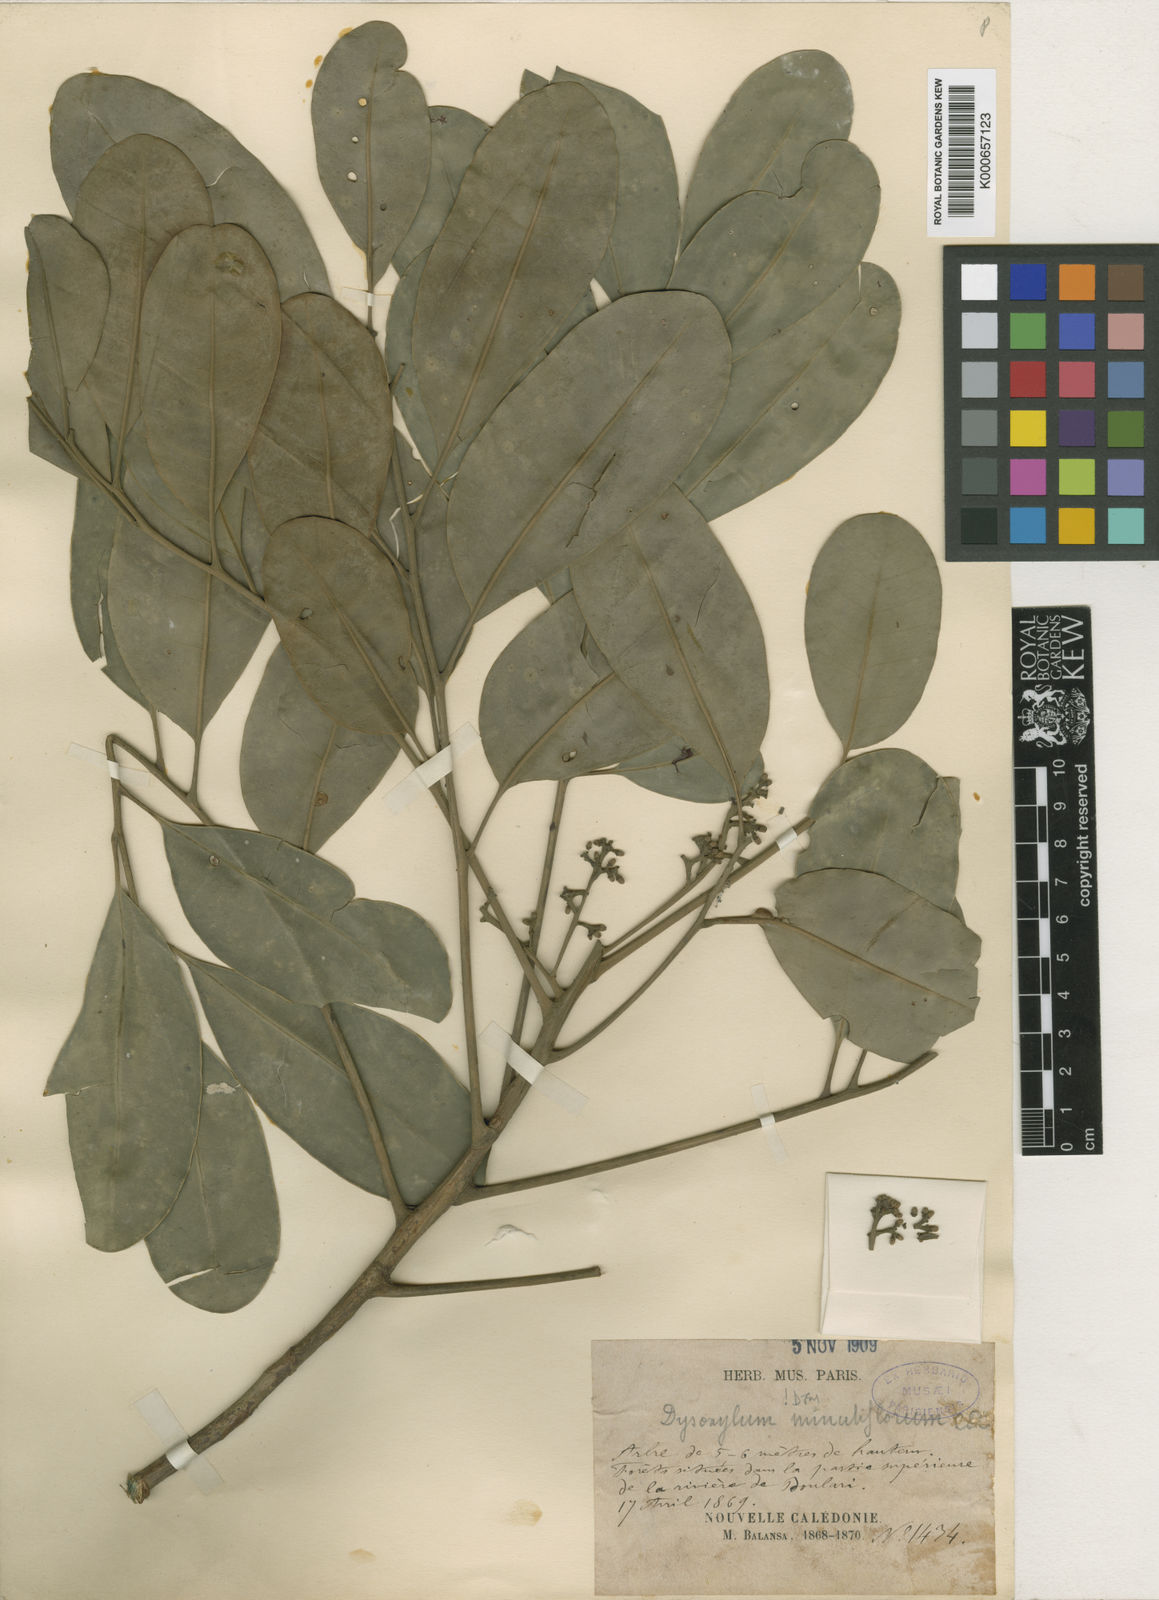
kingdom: Plantae
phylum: Tracheophyta
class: Magnoliopsida
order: Sapindales
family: Meliaceae
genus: Didymocheton
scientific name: Didymocheton minutiflorus
